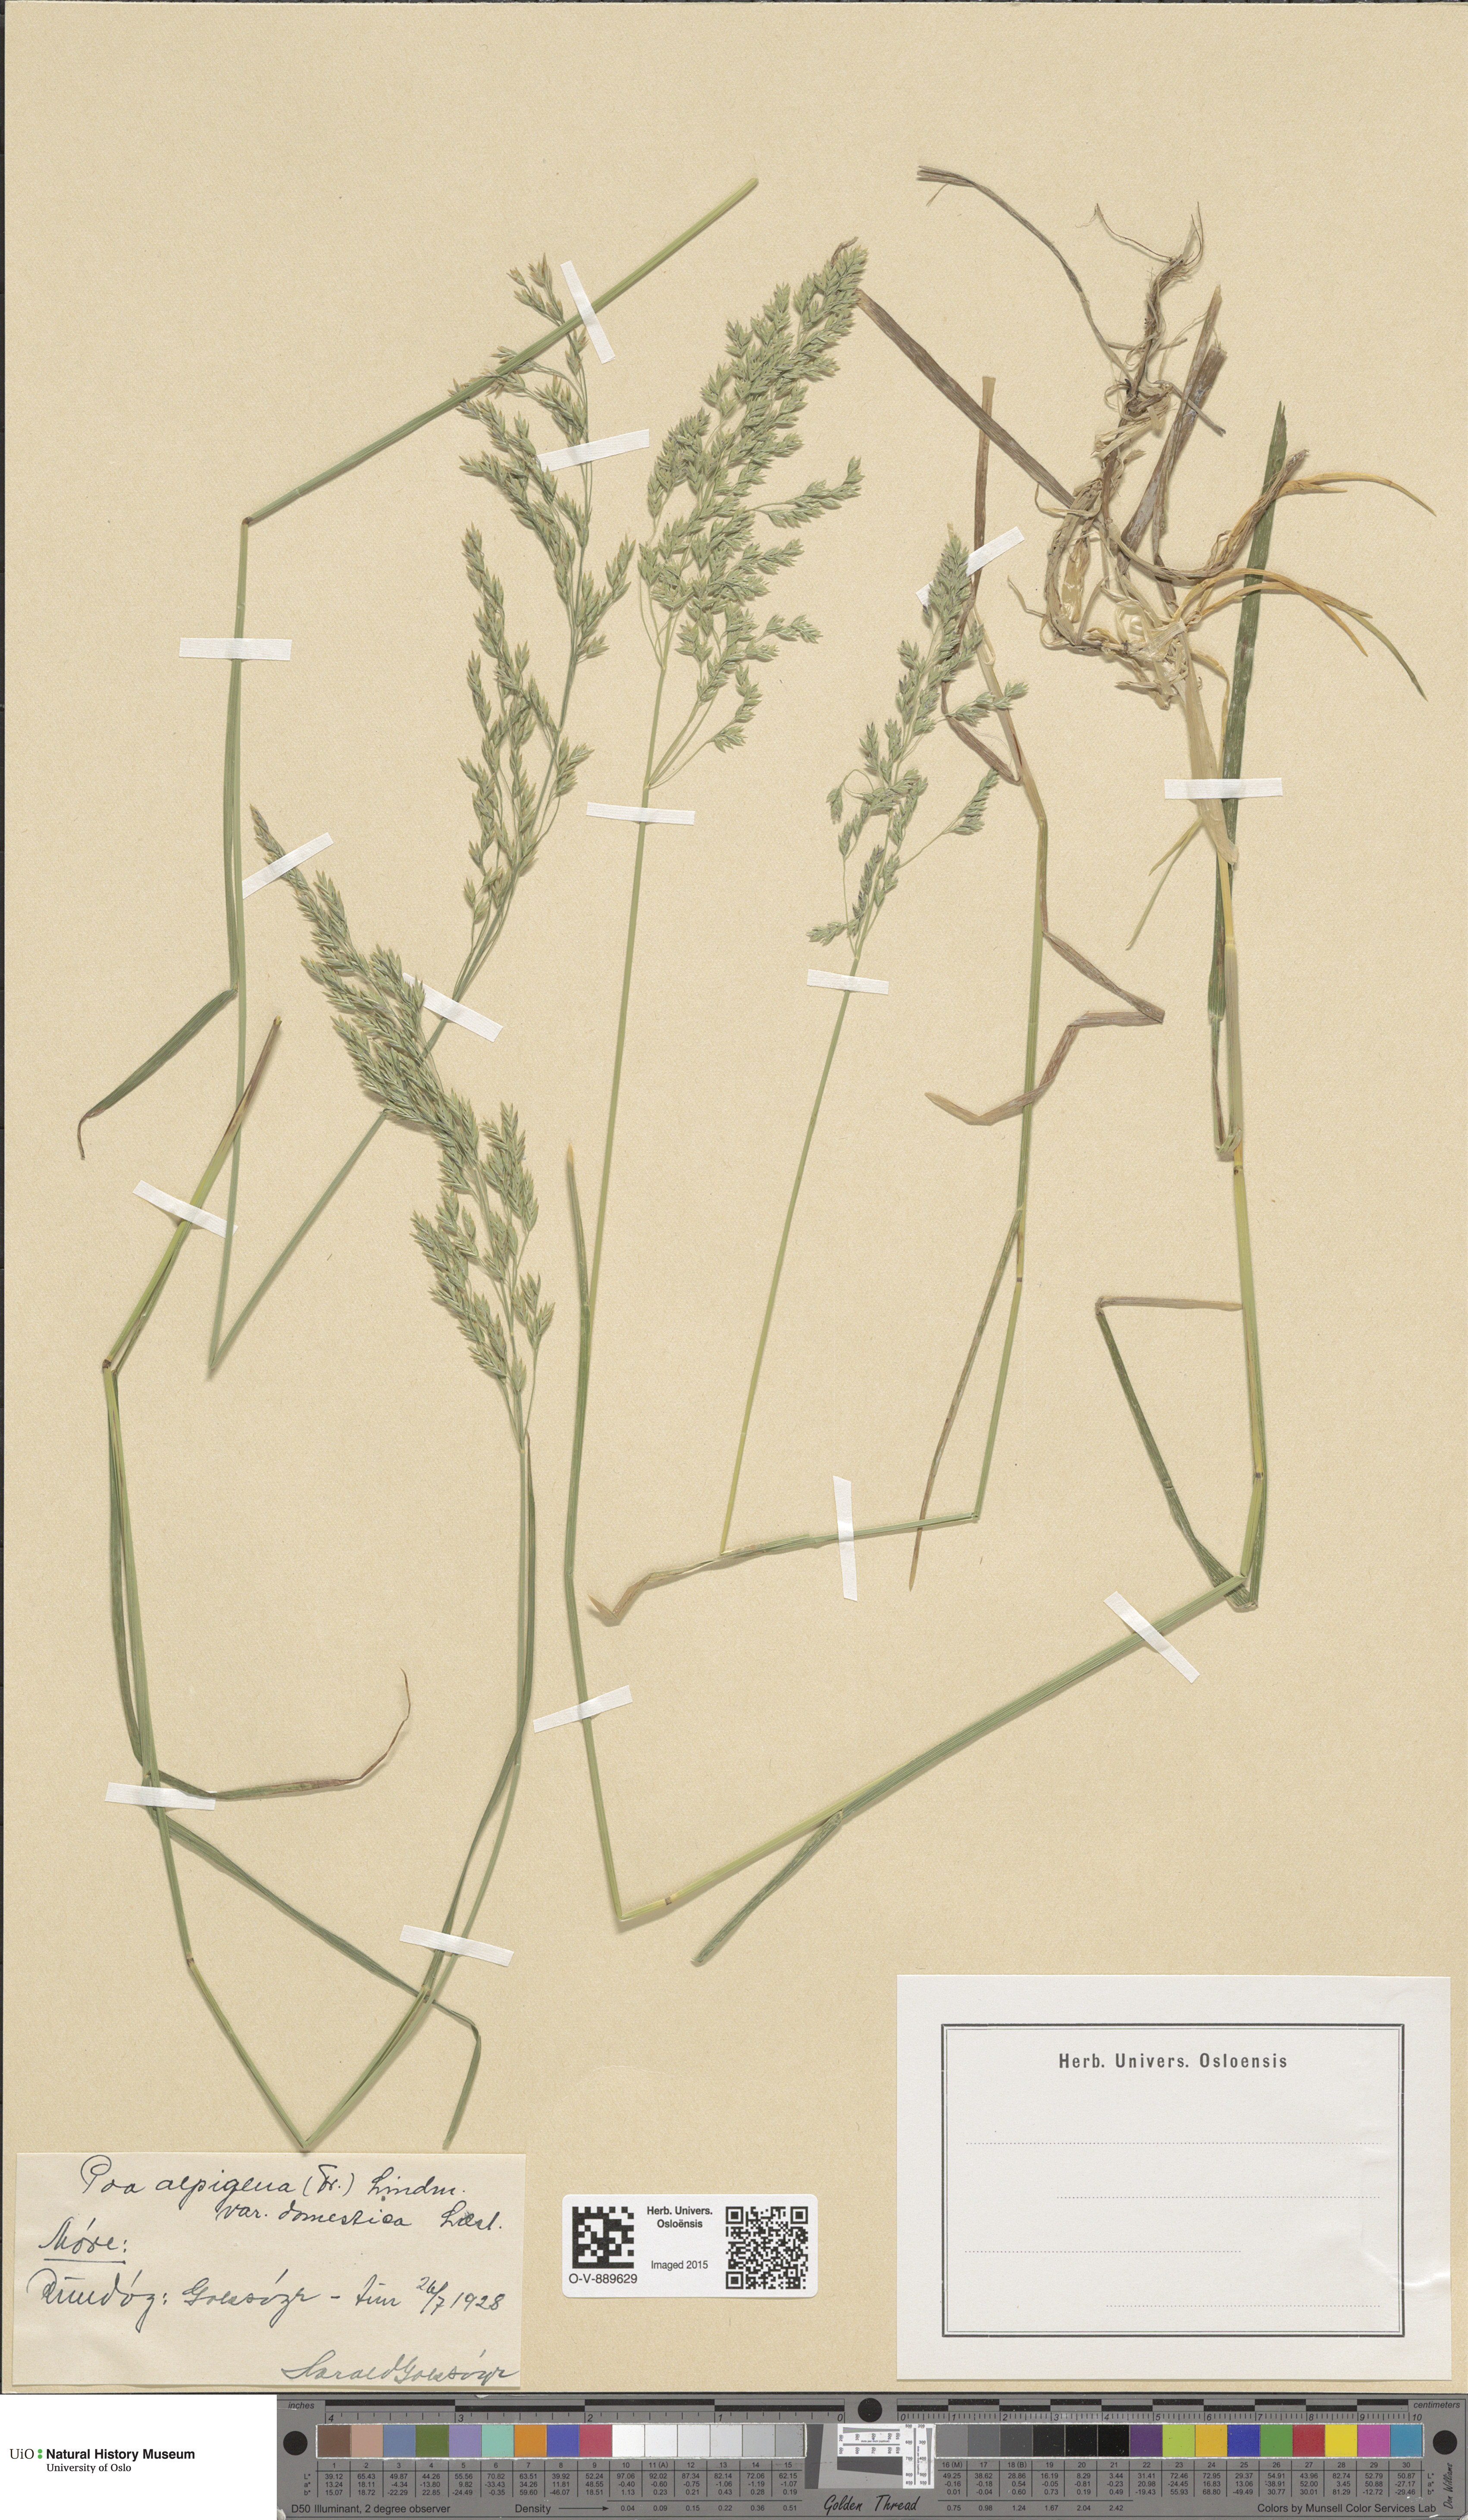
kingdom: Plantae
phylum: Tracheophyta
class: Liliopsida
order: Poales
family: Poaceae
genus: Poa
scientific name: Poa alpigena
